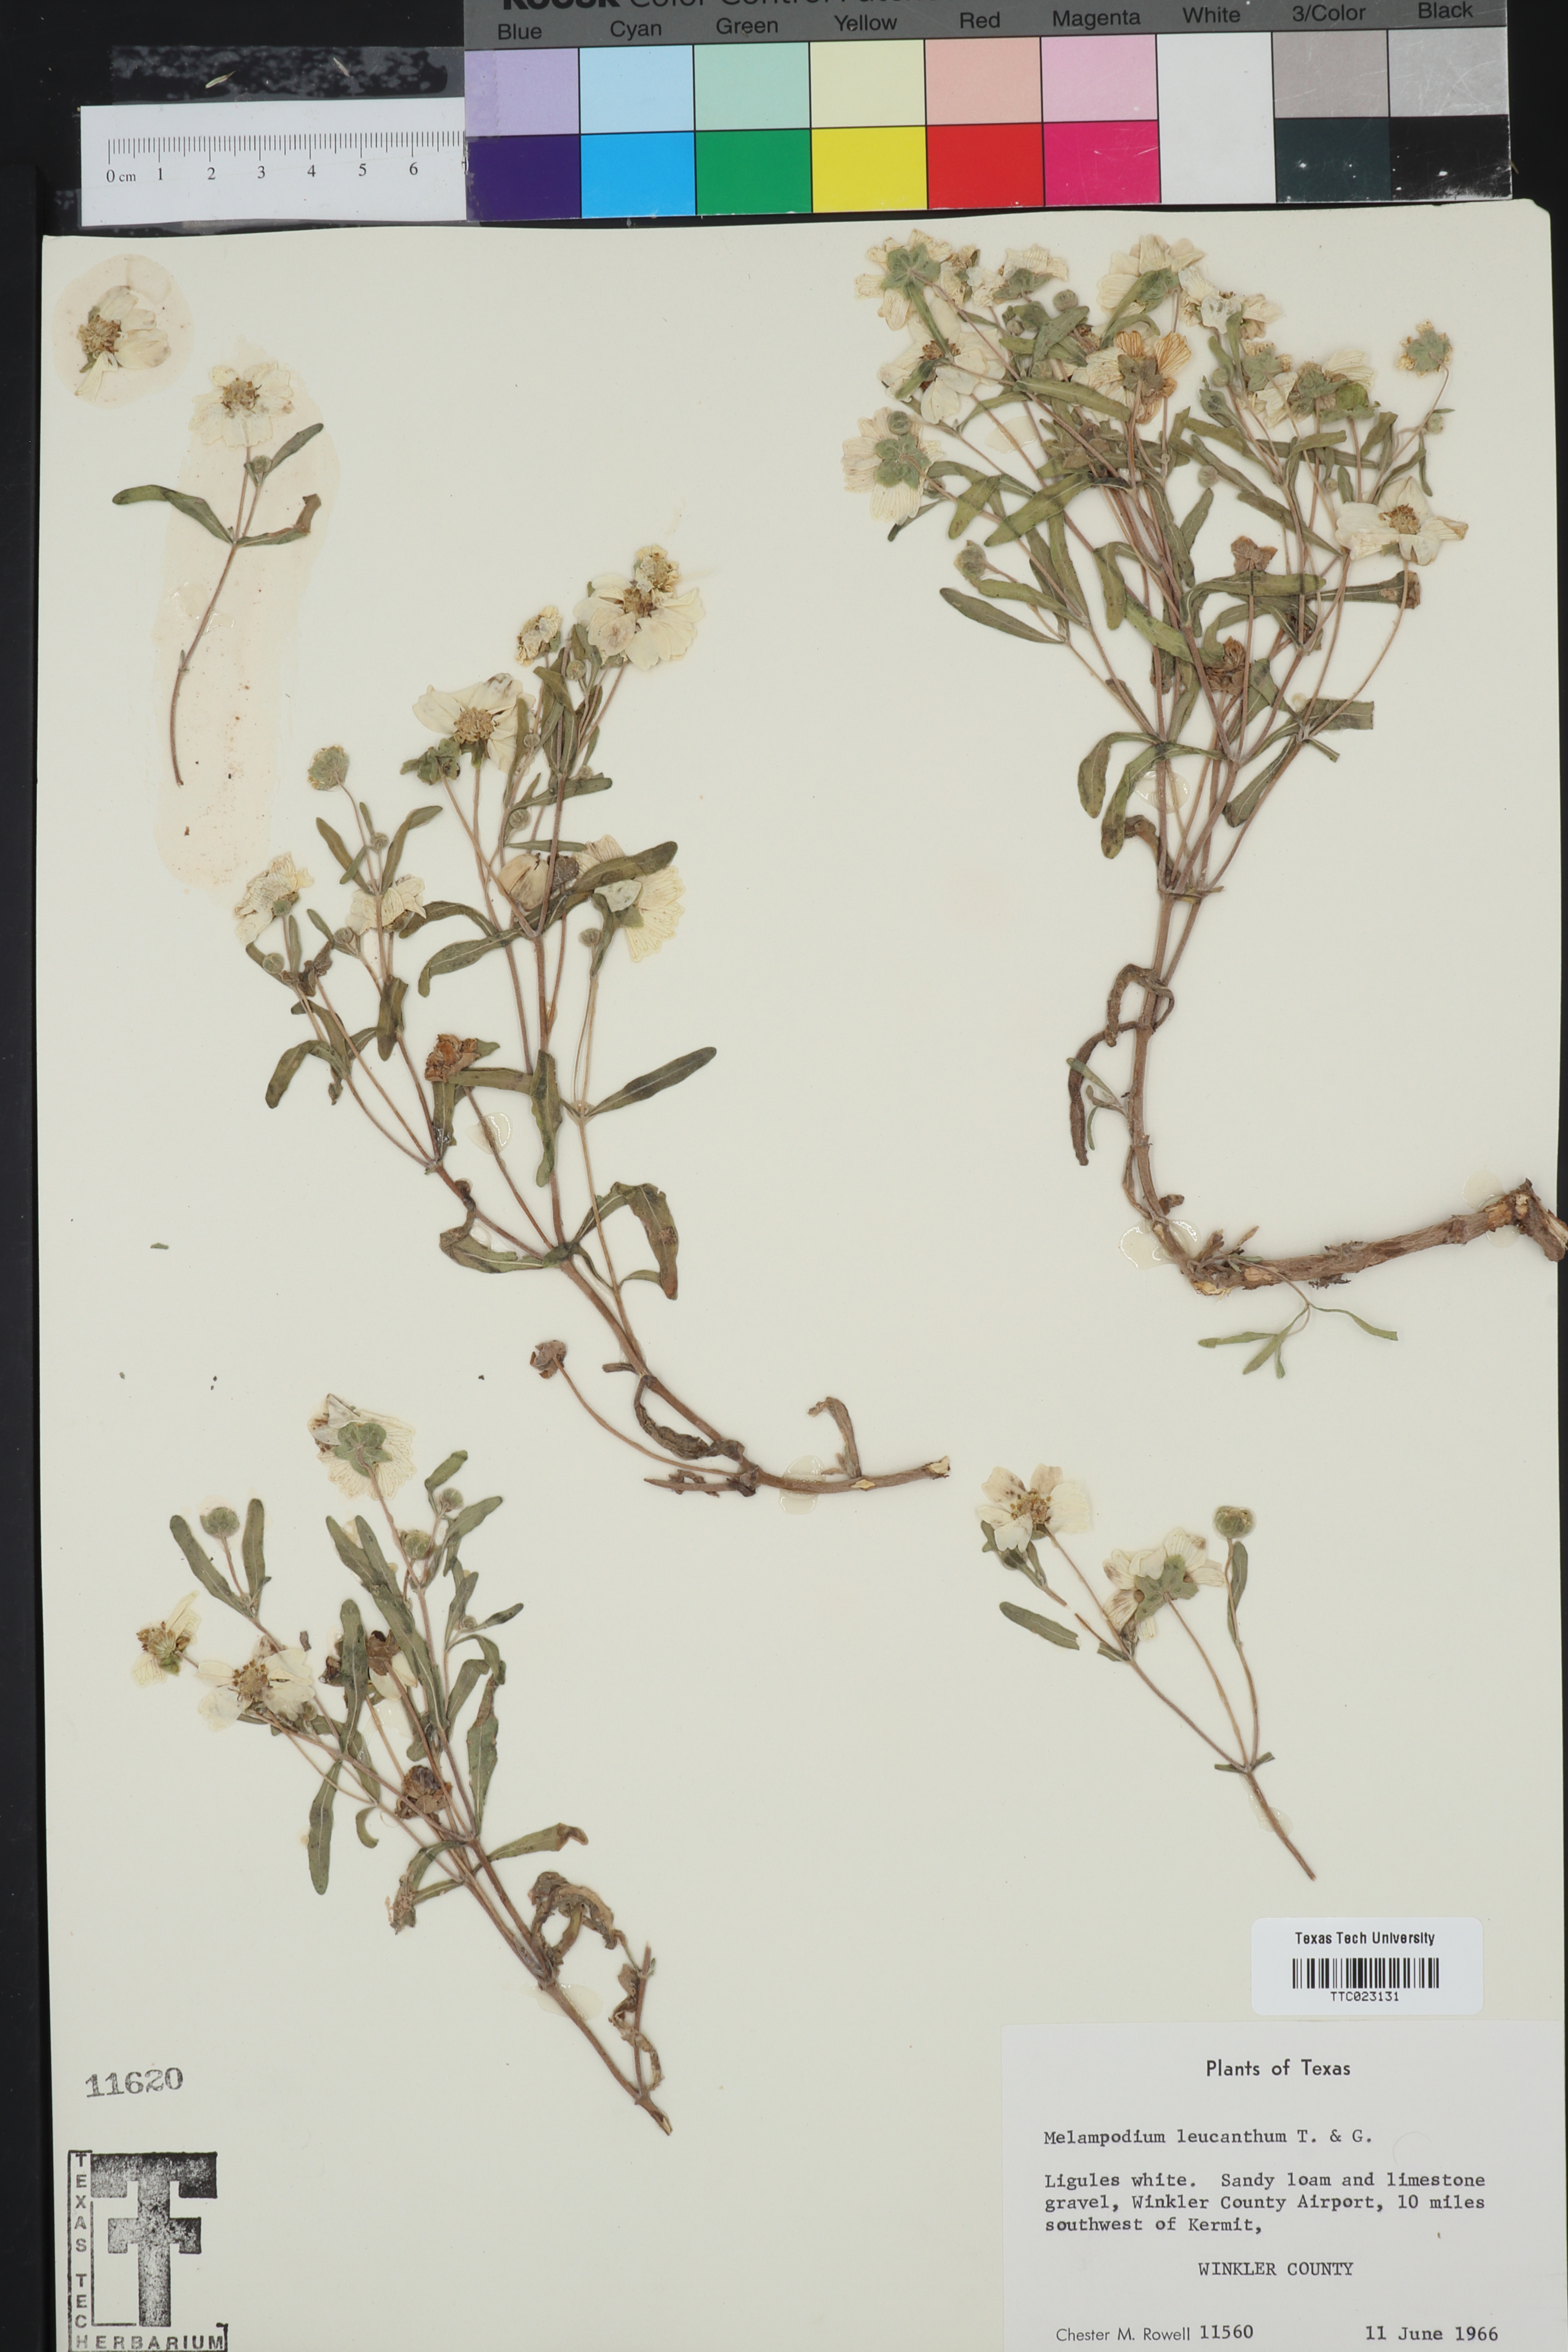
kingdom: Plantae
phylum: Tracheophyta
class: Magnoliopsida
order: Asterales
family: Asteraceae
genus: Melampodium
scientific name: Melampodium leucanthum
